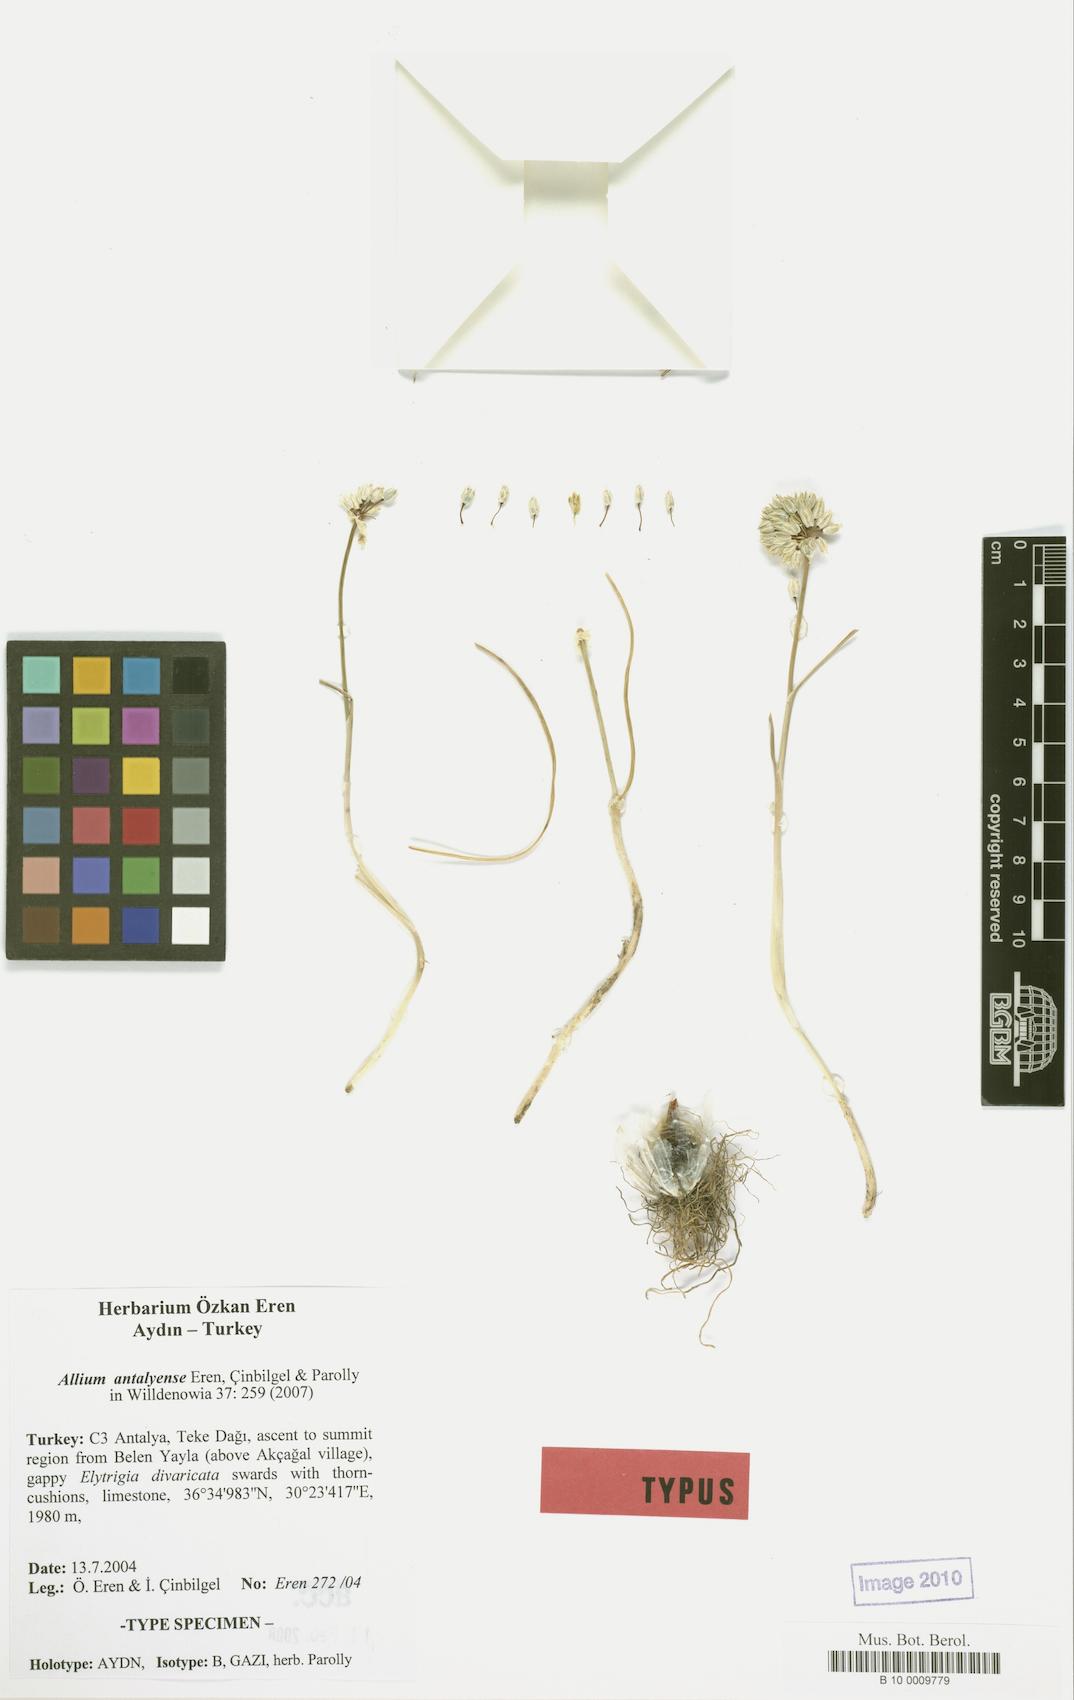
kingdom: Plantae
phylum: Tracheophyta
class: Liliopsida
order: Asparagales
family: Amaryllidaceae
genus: Allium
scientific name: Allium antalyense
